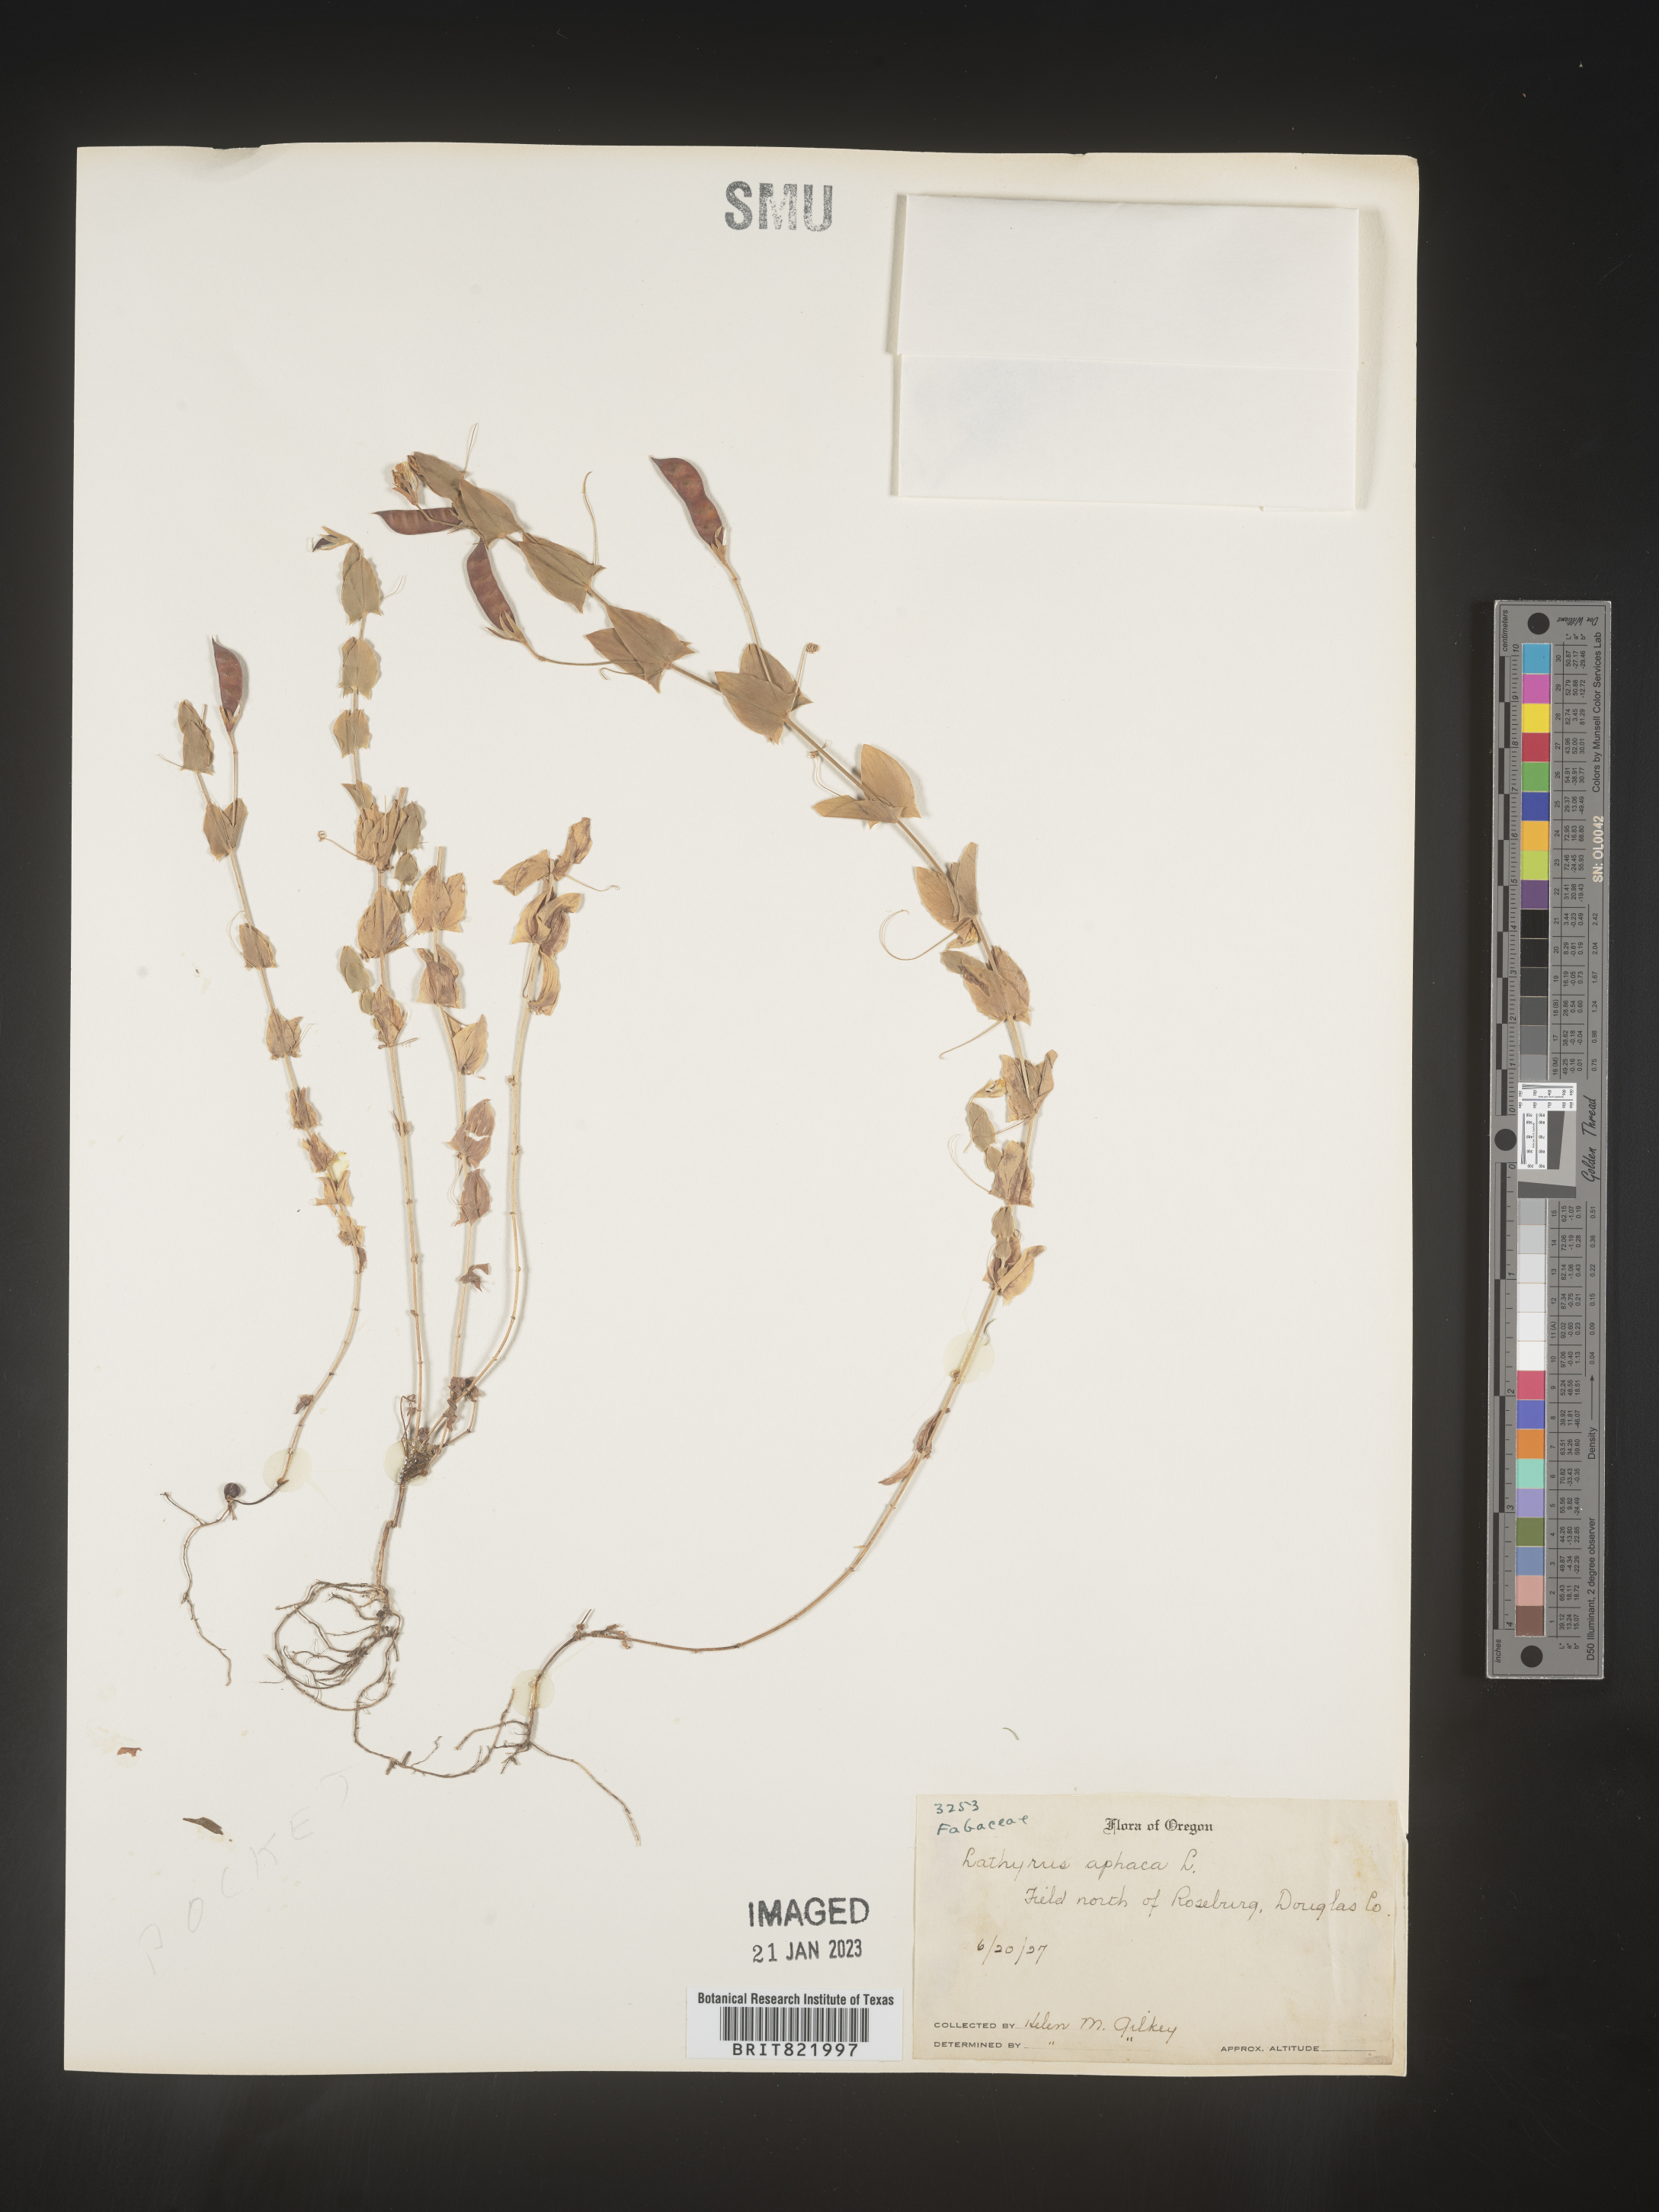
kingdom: Plantae
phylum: Tracheophyta
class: Magnoliopsida
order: Fabales
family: Fabaceae
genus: Lathyrus
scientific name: Lathyrus
